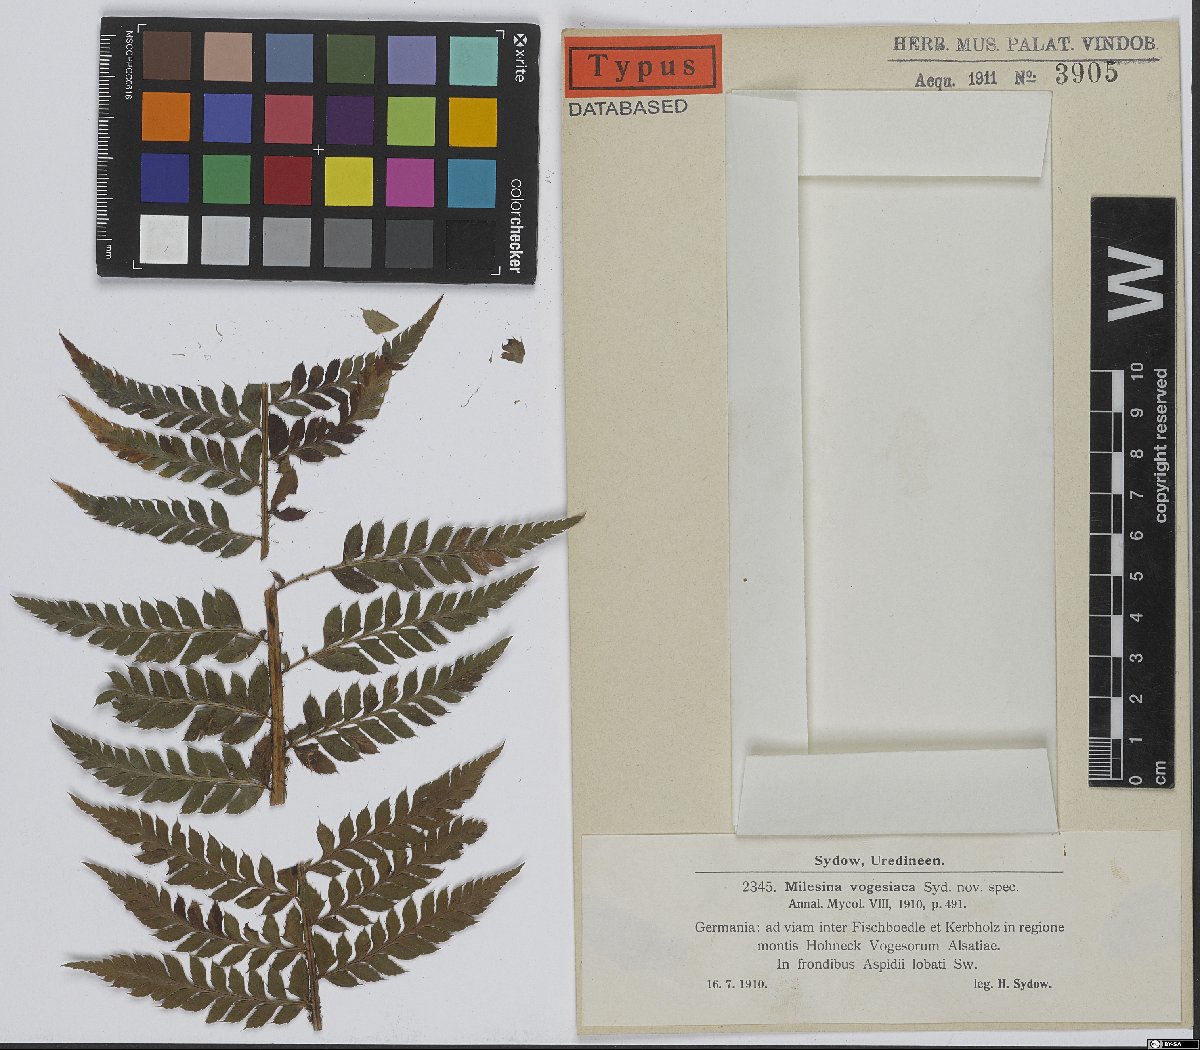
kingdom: Fungi
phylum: Basidiomycota
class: Pucciniomycetes
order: Pucciniales
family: Milesinaceae
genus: Milesina
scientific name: Milesina vogesiaca
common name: Smooth-spored fern rust
